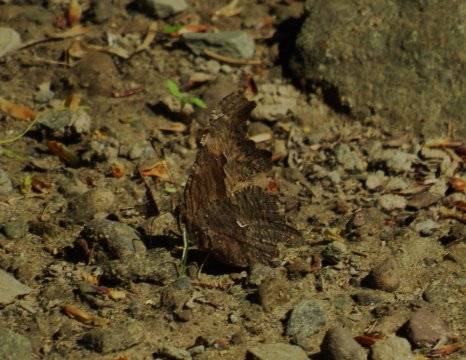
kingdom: Animalia
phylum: Arthropoda
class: Insecta
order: Lepidoptera
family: Nymphalidae
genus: Polygonia
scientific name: Polygonia progne
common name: Gray Comma
